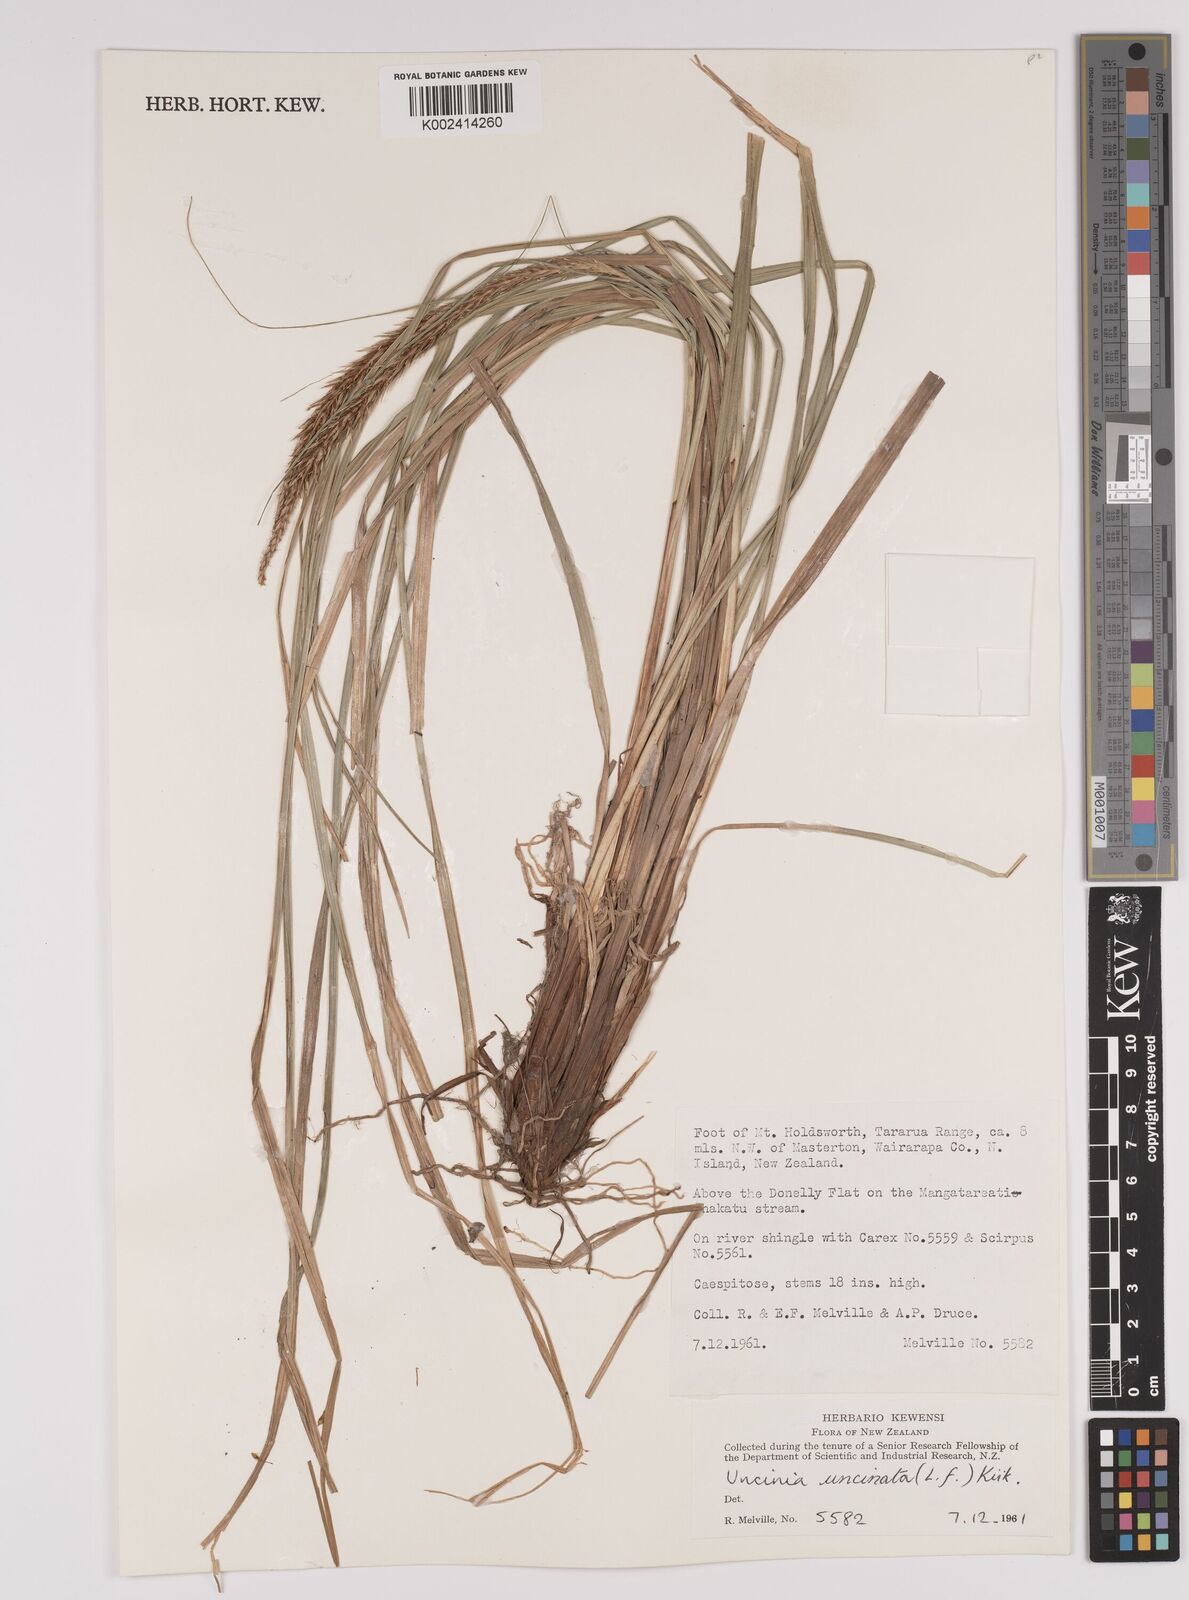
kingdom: Plantae
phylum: Tracheophyta
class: Liliopsida
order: Poales
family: Cyperaceae
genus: Carex
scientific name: Carex uncinata
